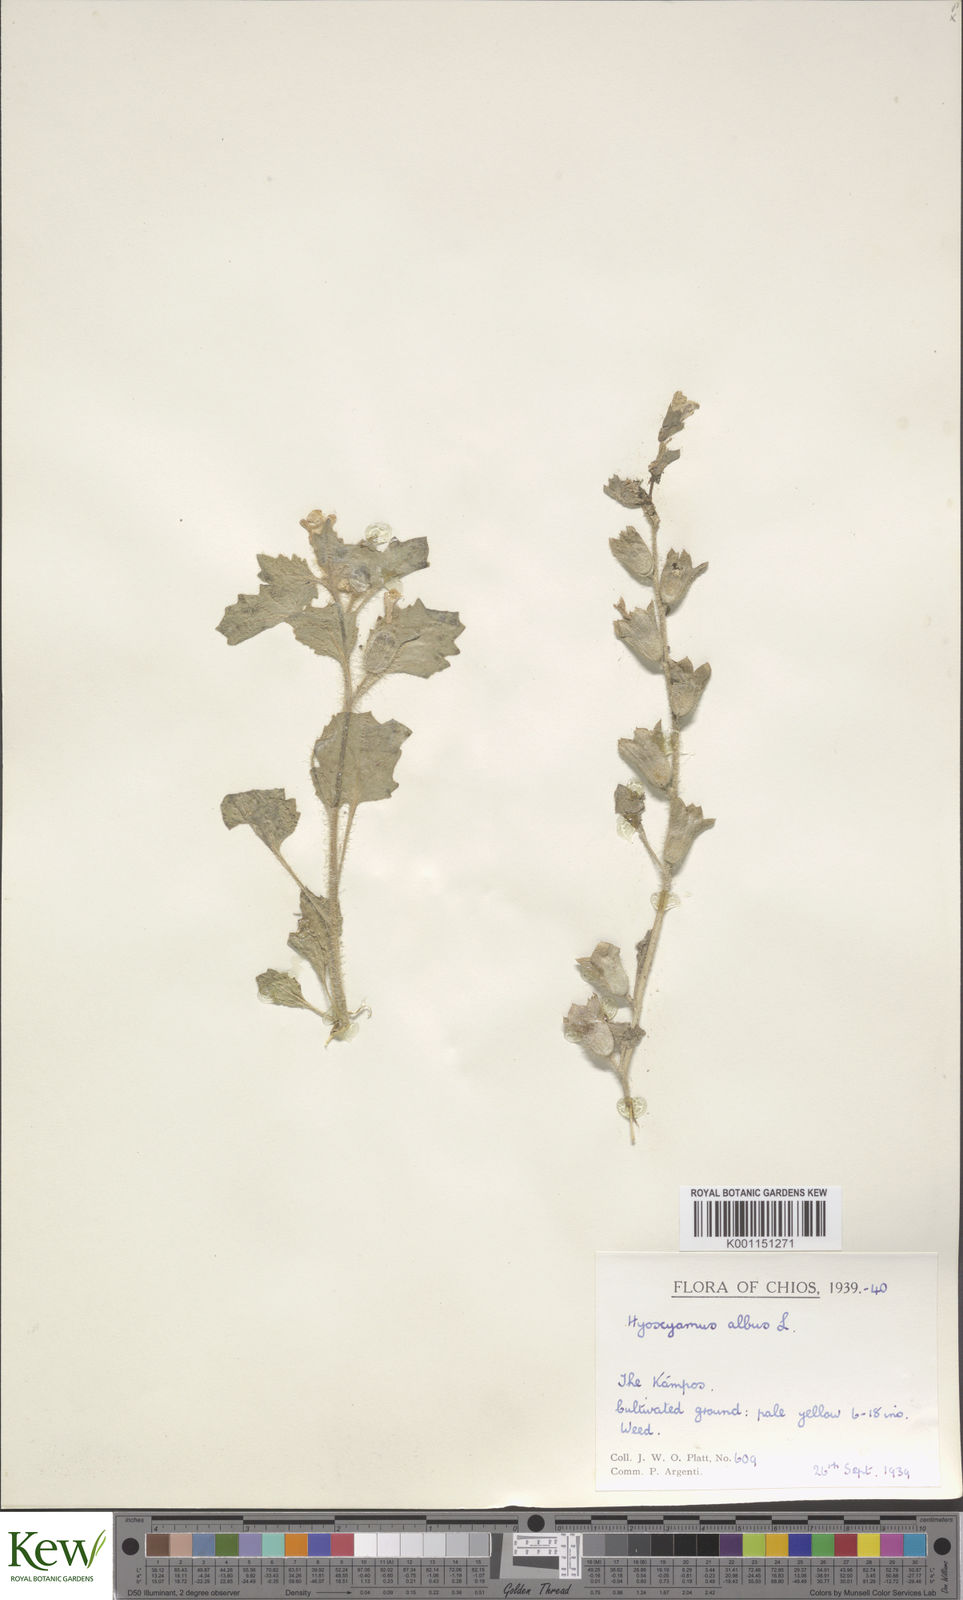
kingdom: Plantae
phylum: Tracheophyta
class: Magnoliopsida
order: Solanales
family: Solanaceae
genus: Solanum
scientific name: Solanum nigrum
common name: Black nightshade
